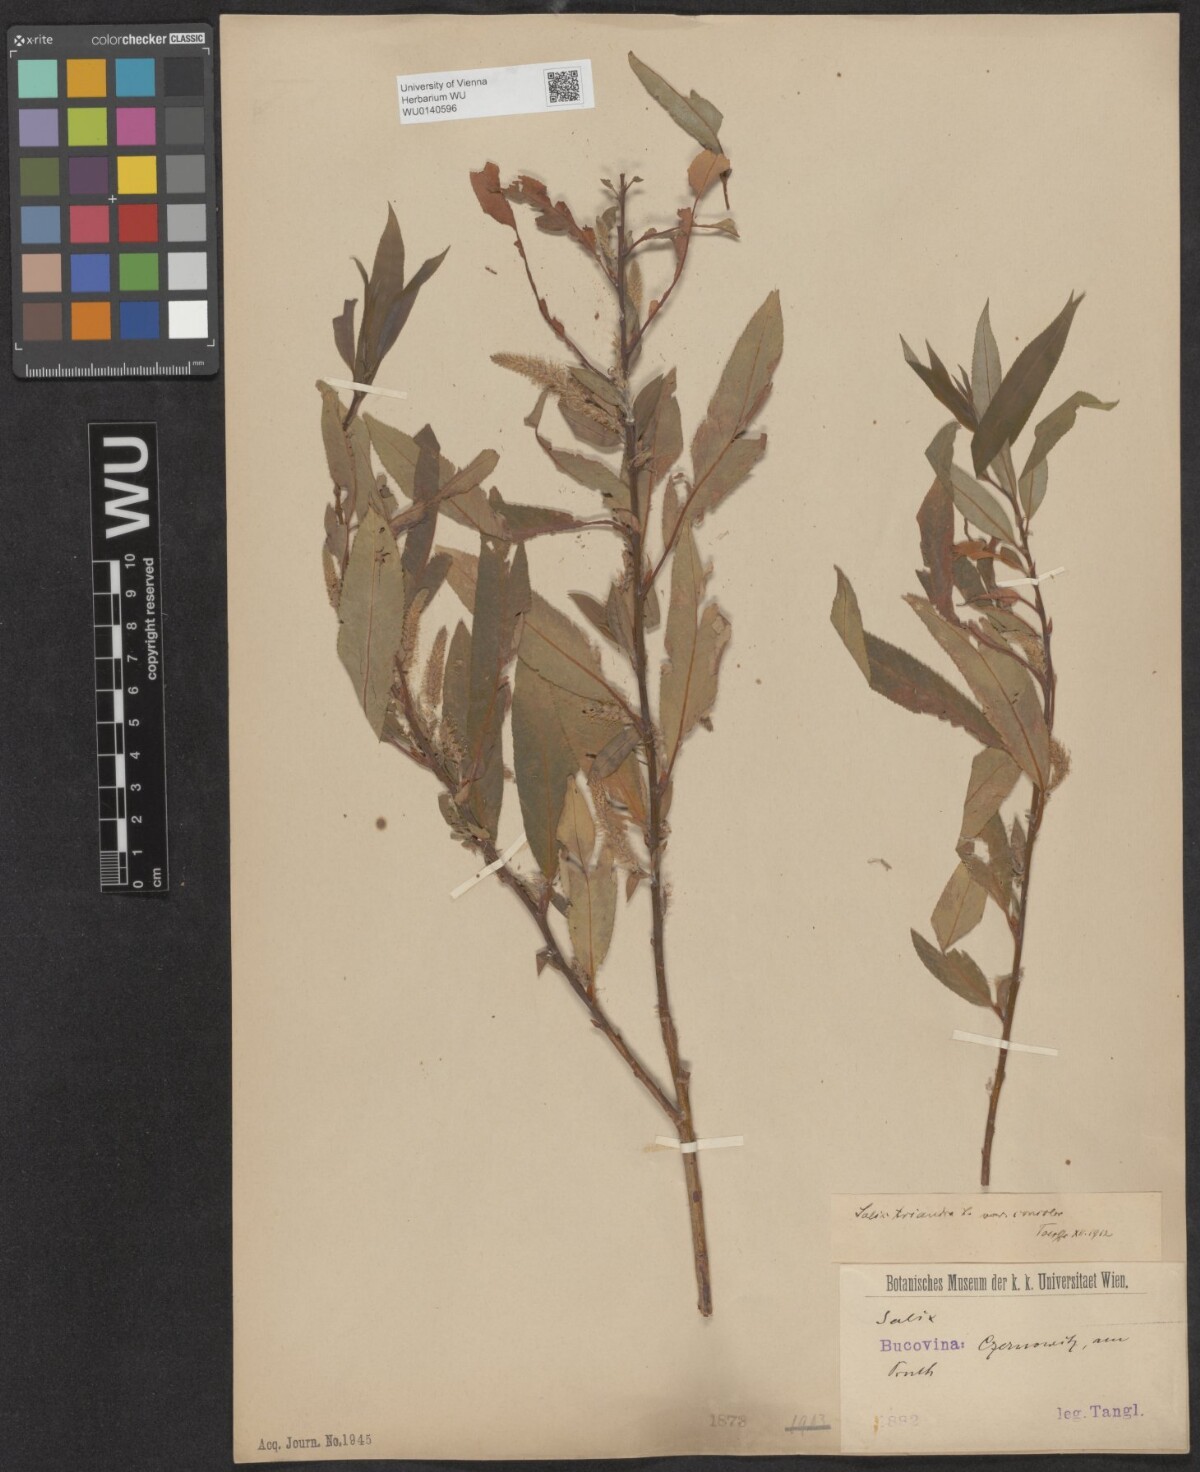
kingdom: Plantae
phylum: Tracheophyta
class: Magnoliopsida
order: Malpighiales
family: Salicaceae
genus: Salix
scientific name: Salix triandra
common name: Almond willow
